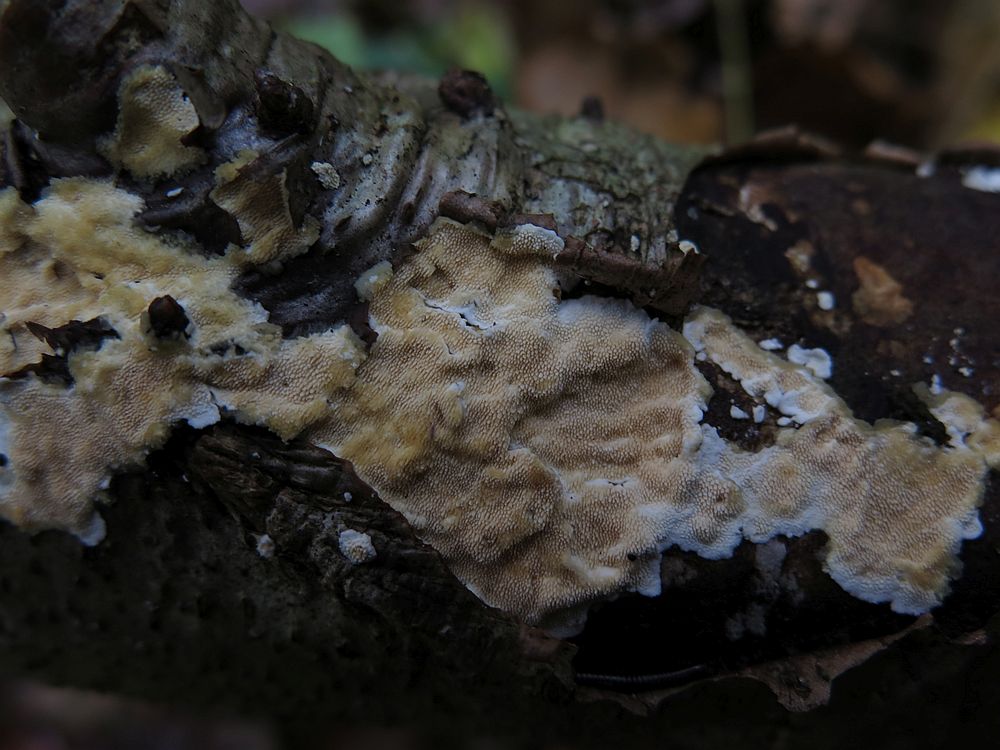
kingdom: Fungi
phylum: Basidiomycota
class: Agaricomycetes
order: Polyporales
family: Steccherinaceae
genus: Steccherinum
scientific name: Steccherinum ochraceum
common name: almindelig skønpig
